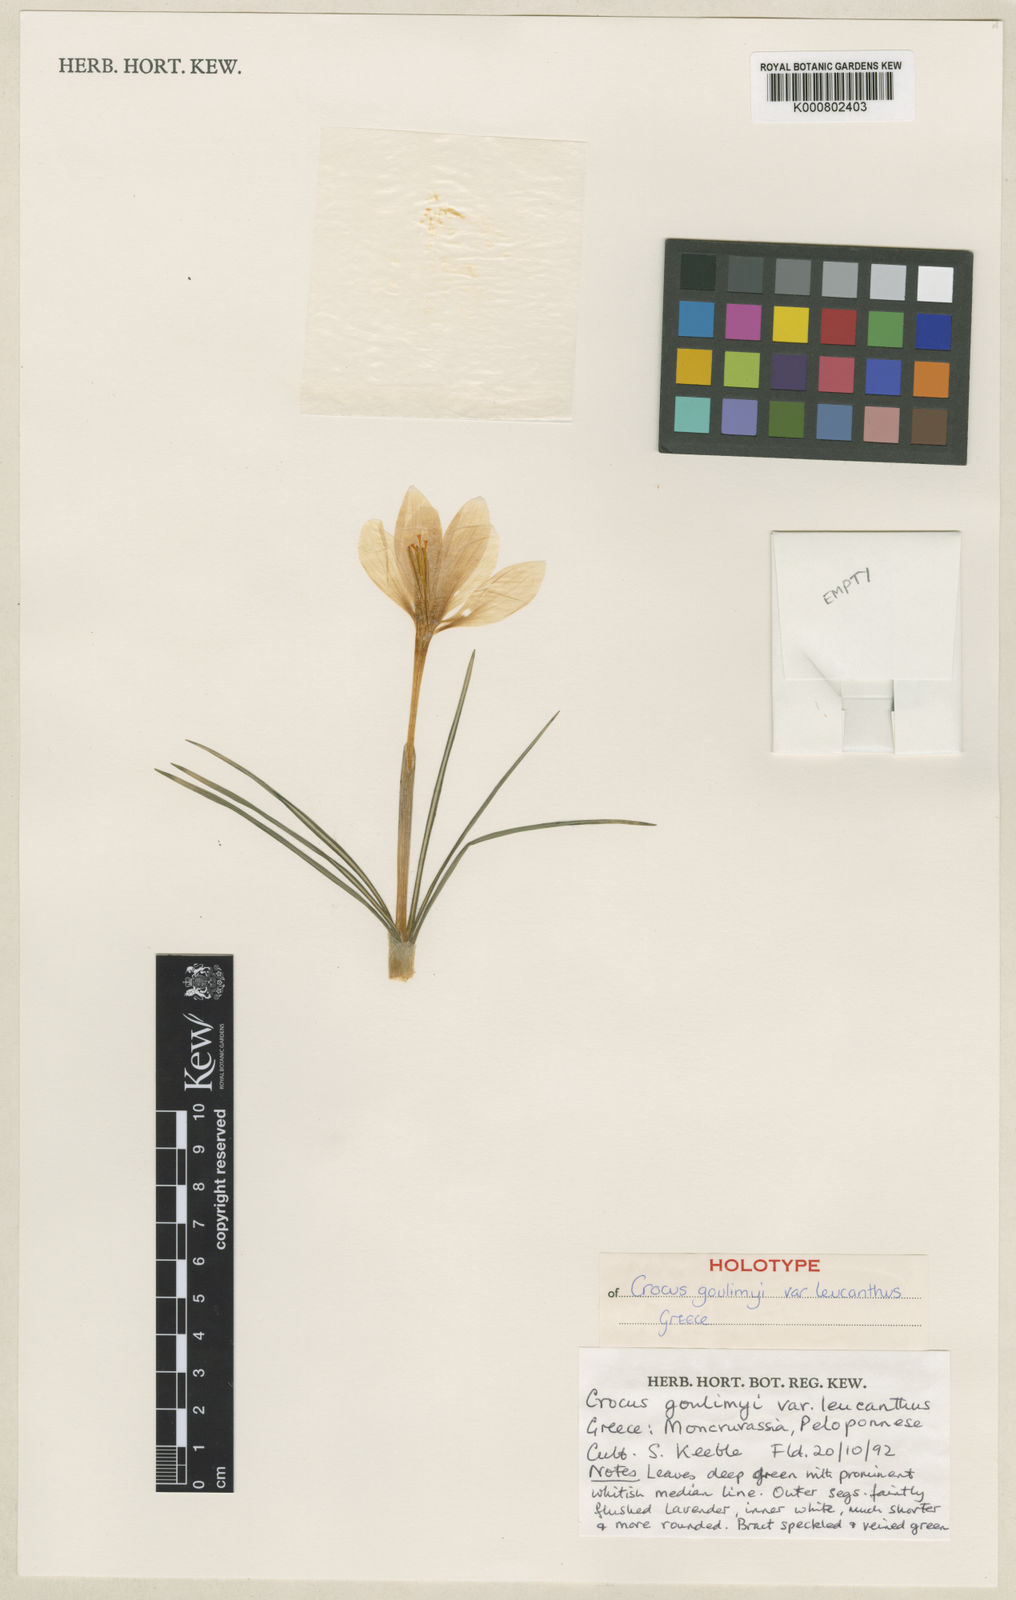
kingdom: Plantae
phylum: Tracheophyta
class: Liliopsida
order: Asparagales
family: Iridaceae
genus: Crocus
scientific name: Crocus goulimyi
